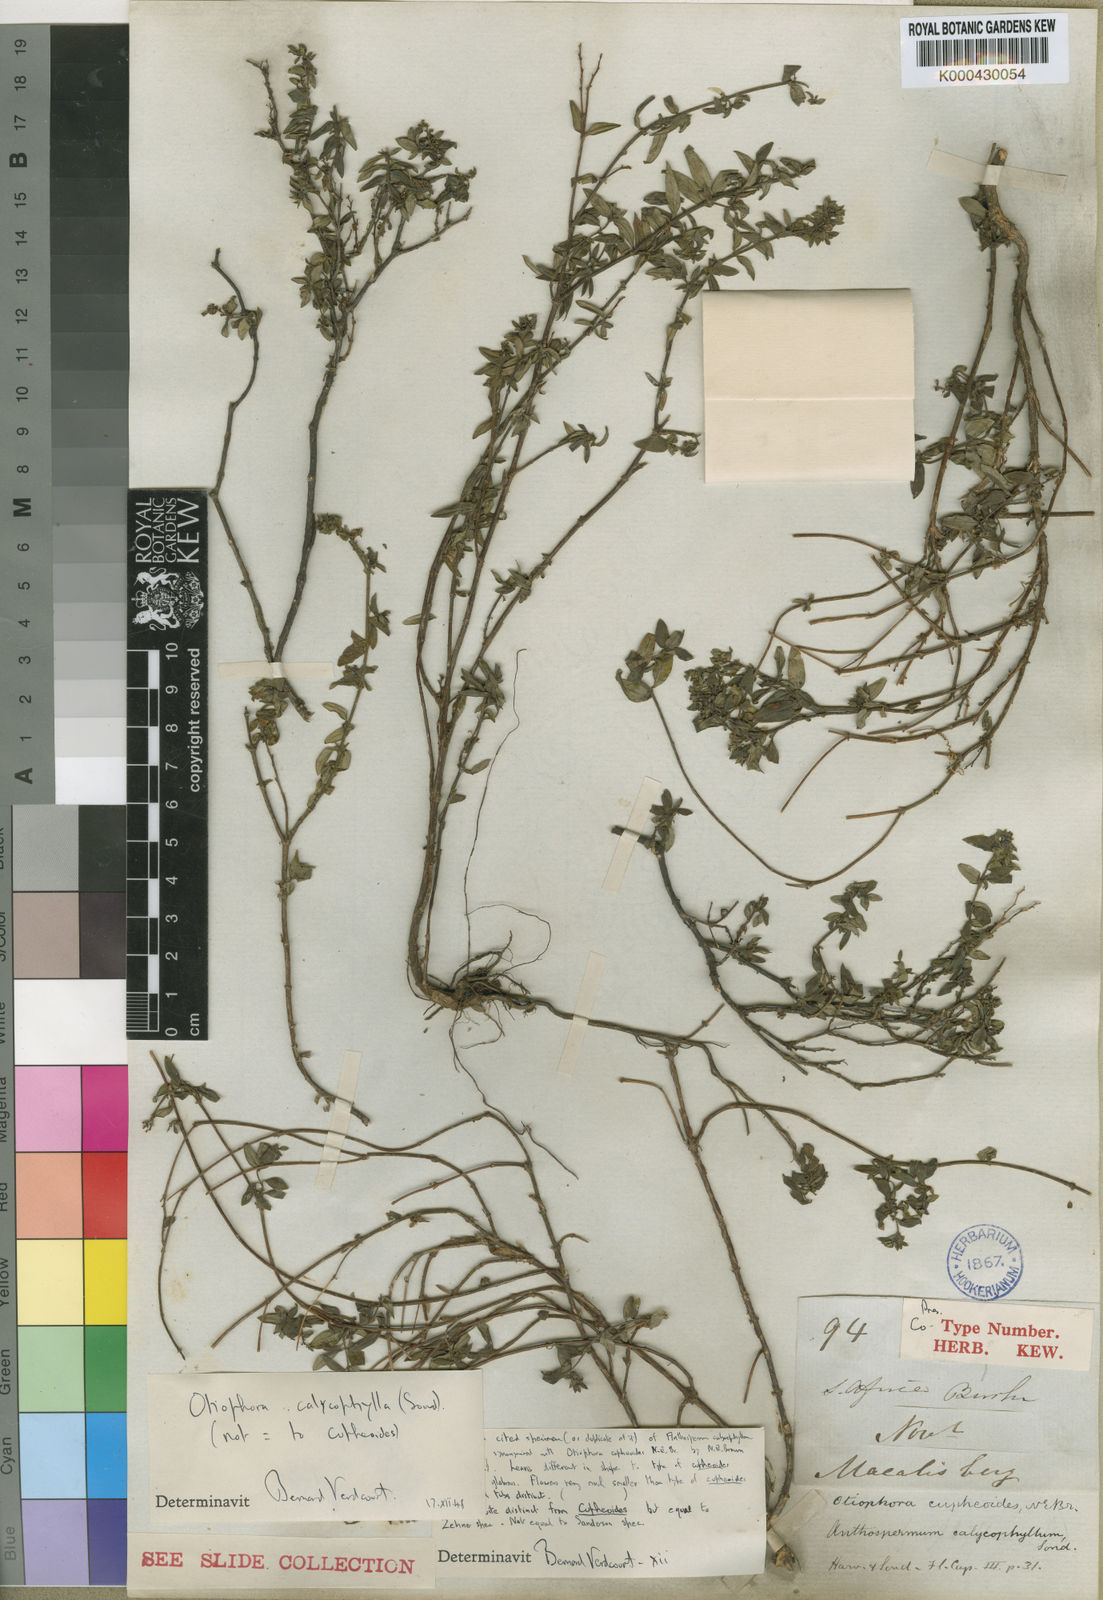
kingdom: Plantae
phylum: Tracheophyta
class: Magnoliopsida
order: Gentianales
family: Rubiaceae
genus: Otiophora
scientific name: Otiophora calycophylla
